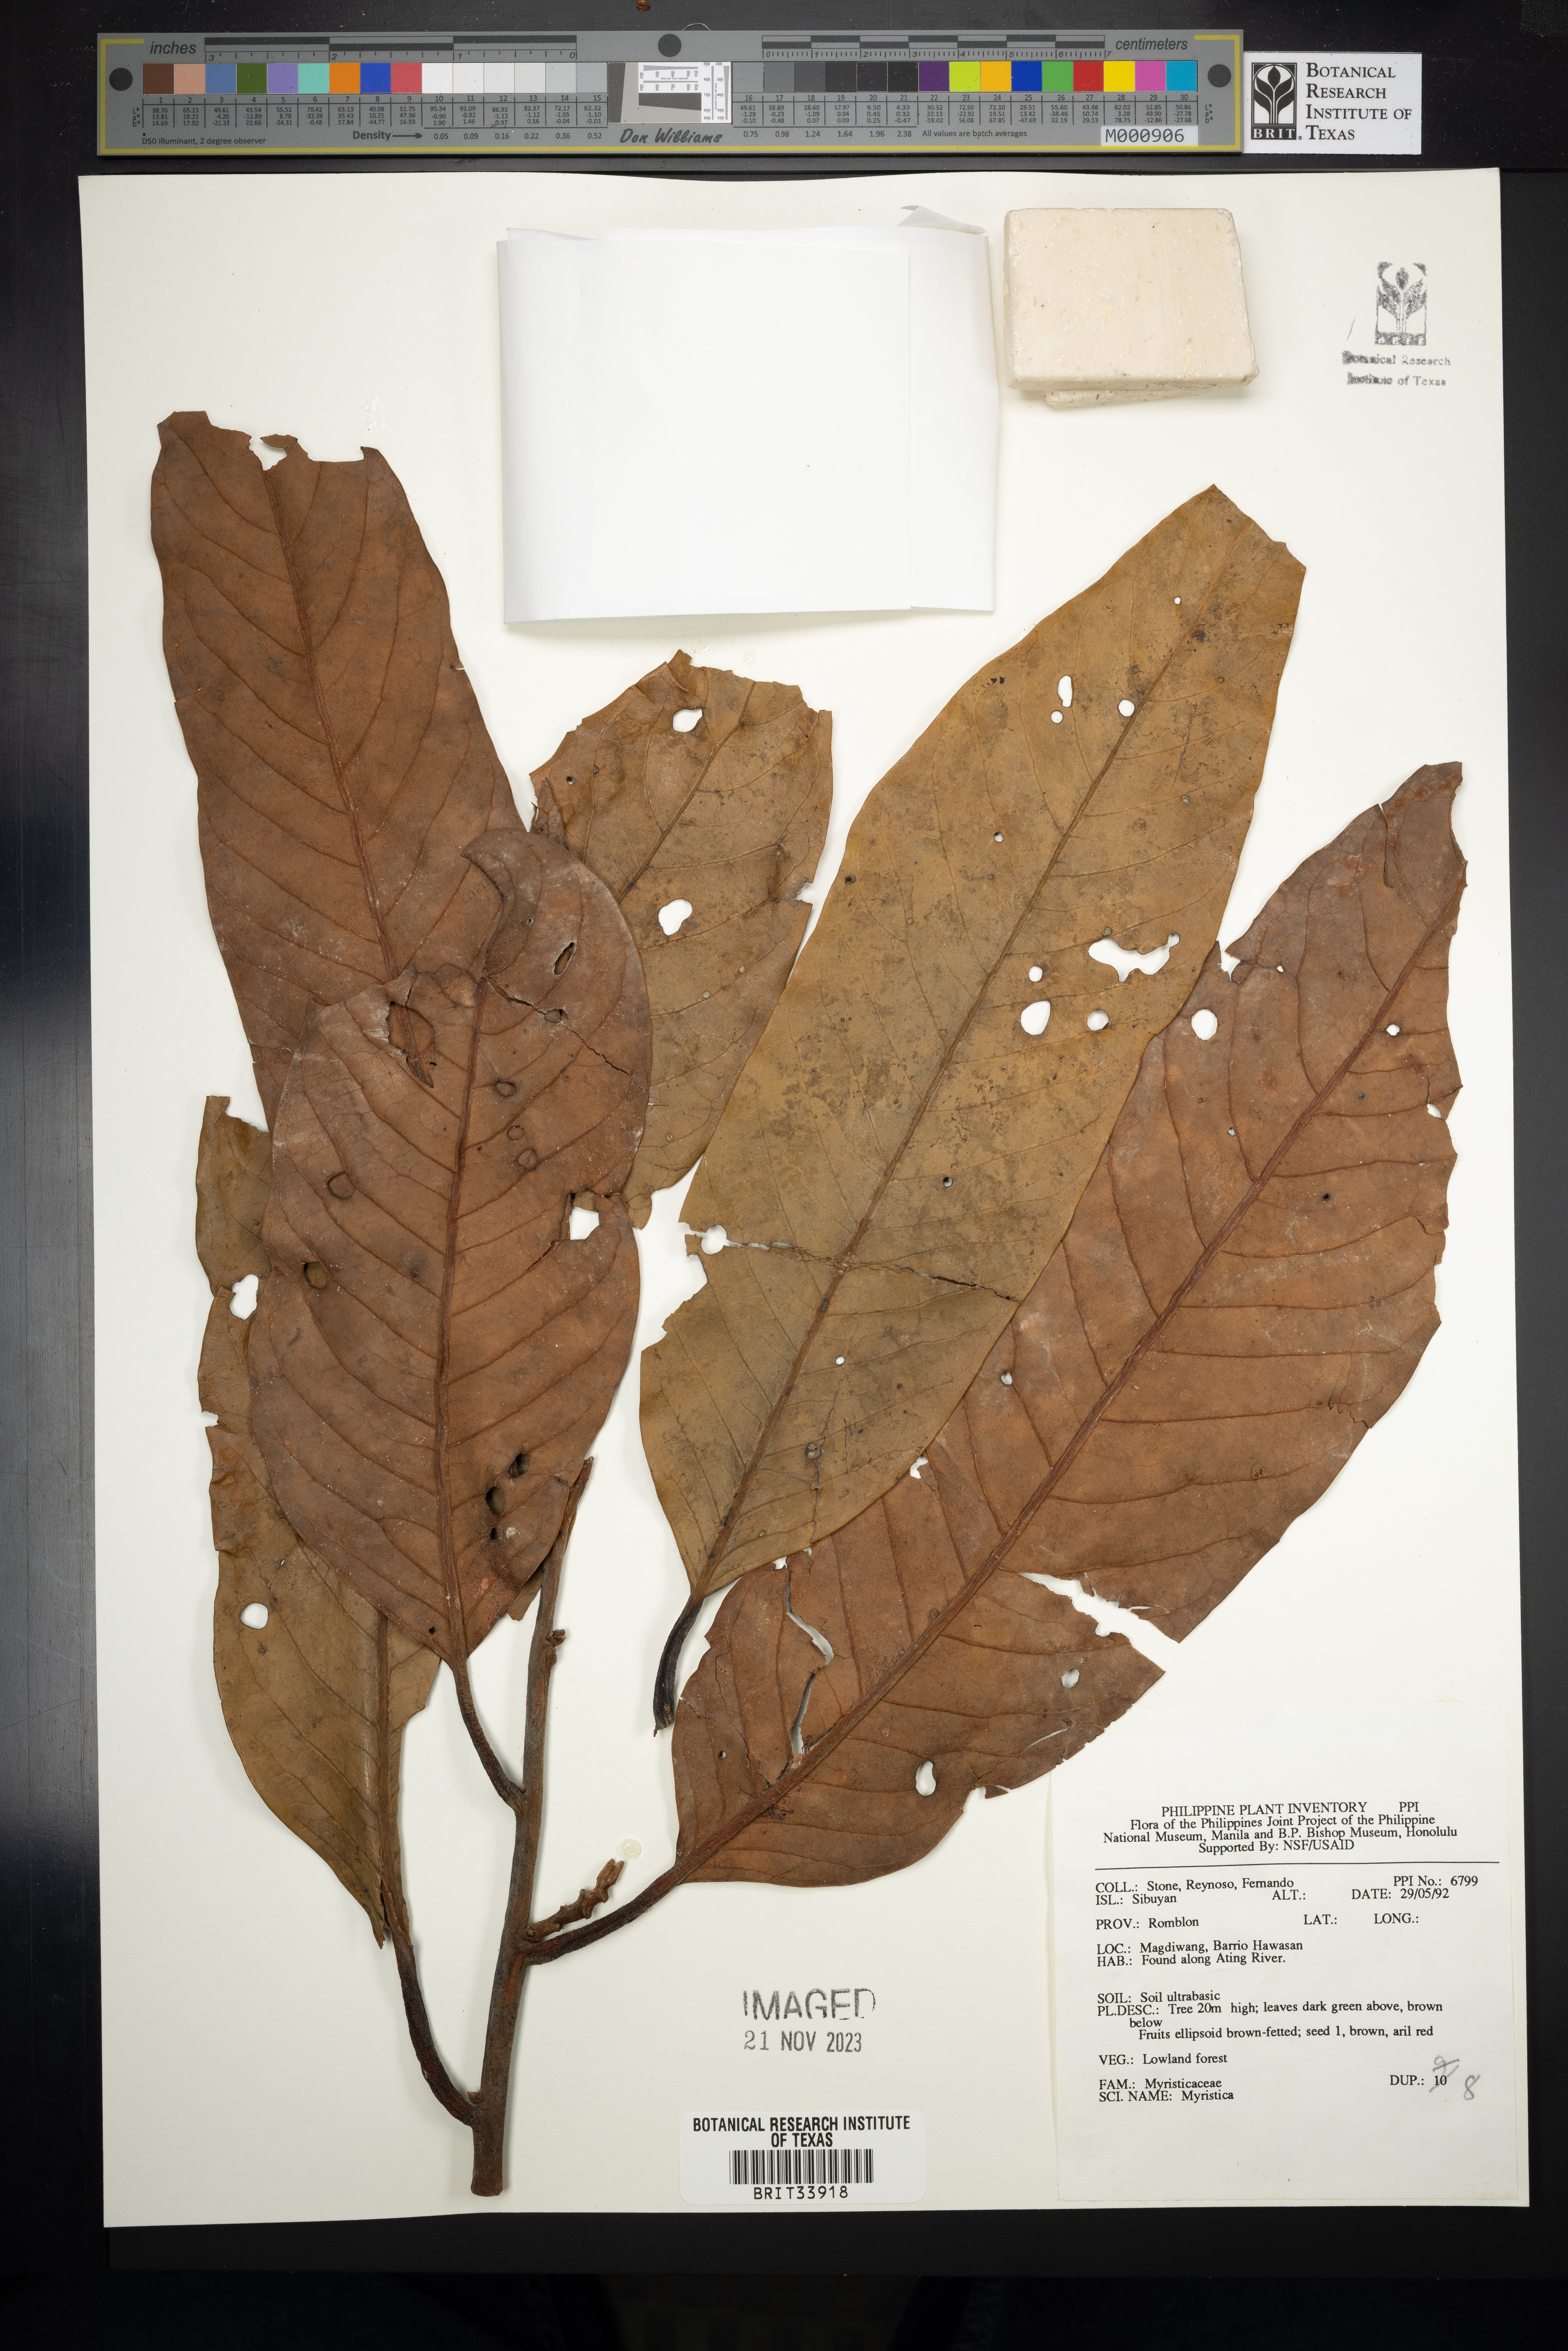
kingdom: Plantae
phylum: Tracheophyta
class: Magnoliopsida
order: Magnoliales
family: Myristicaceae
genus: Myristica
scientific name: Myristica
